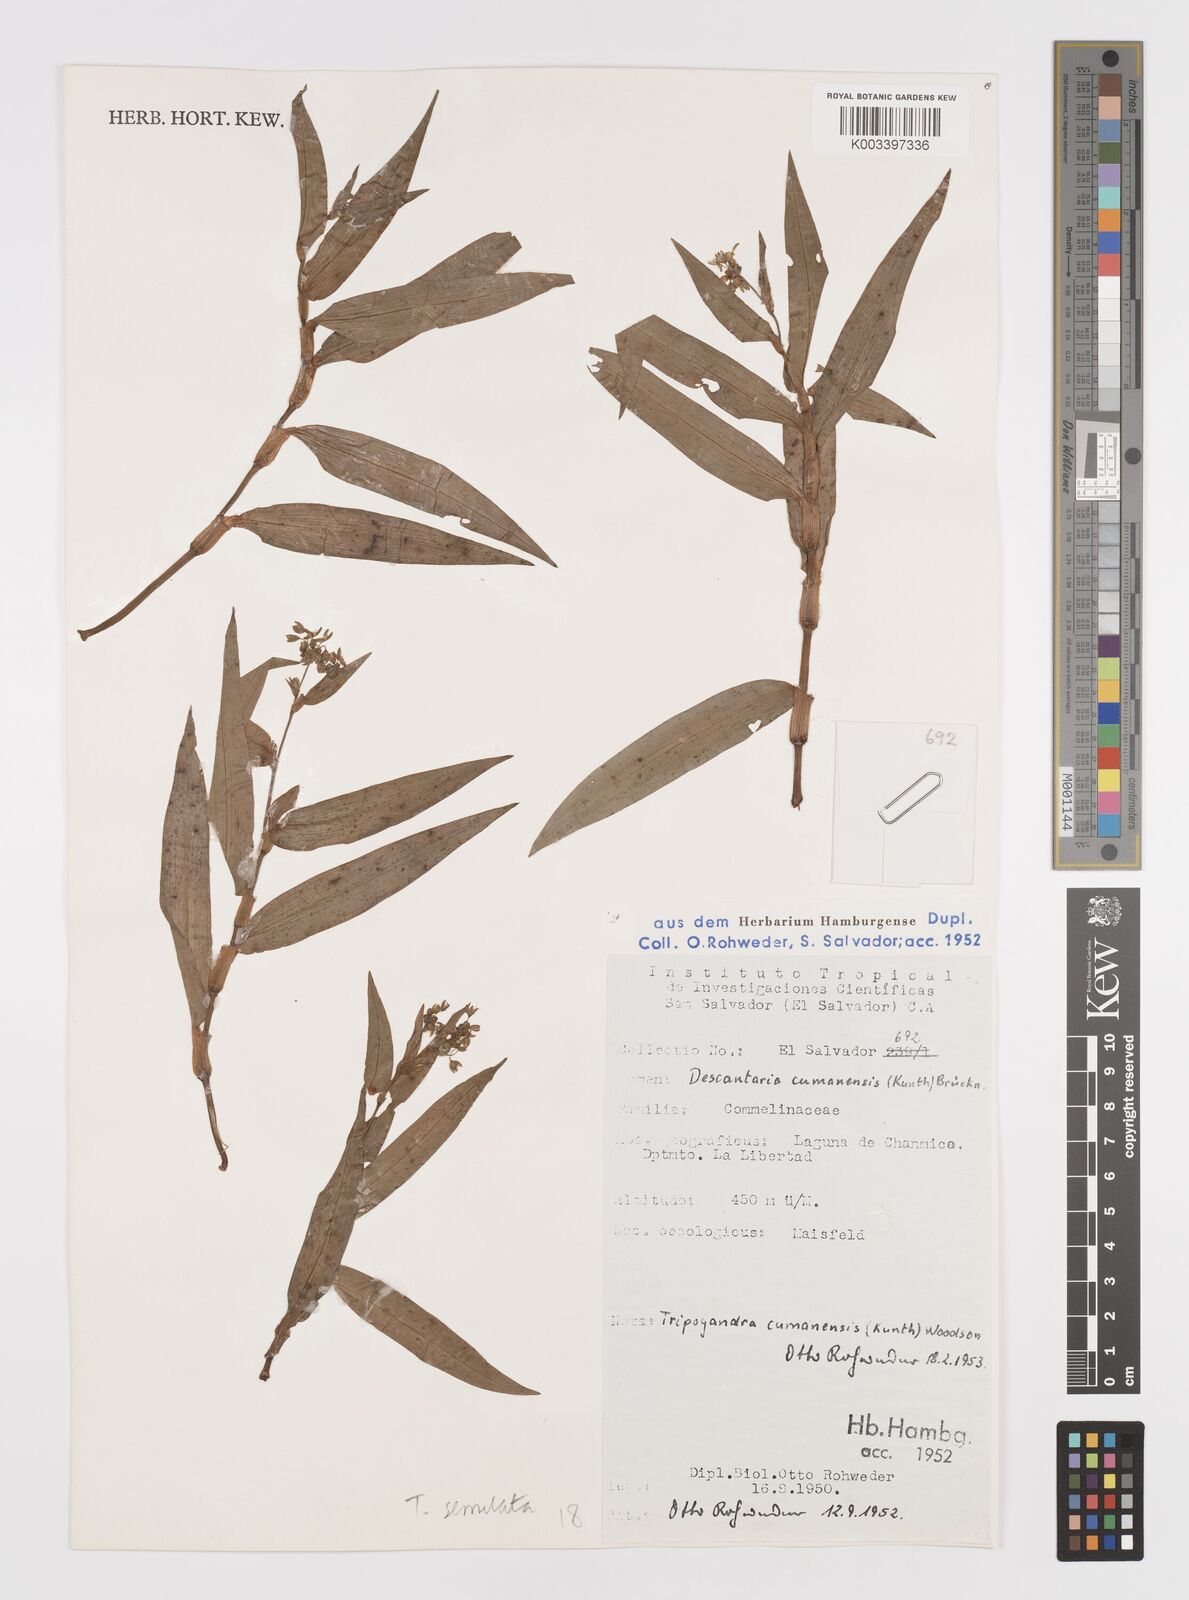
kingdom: Plantae
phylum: Tracheophyta
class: Liliopsida
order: Commelinales
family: Commelinaceae
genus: Callisia
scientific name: Callisia serrulata
